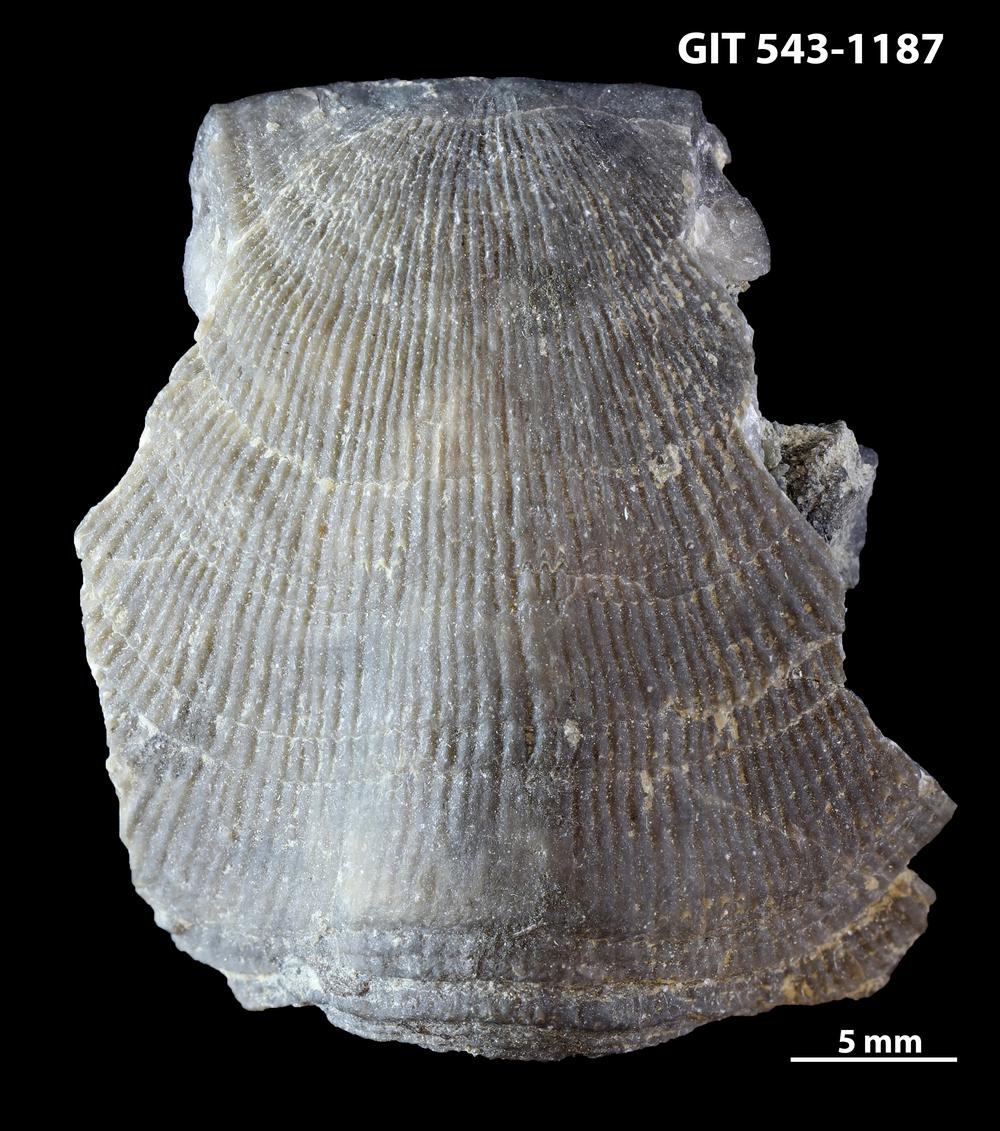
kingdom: Animalia
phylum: Brachiopoda
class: Rhynchonellata
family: Clitambonitidae
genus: Ilmarinia
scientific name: Ilmarinia
